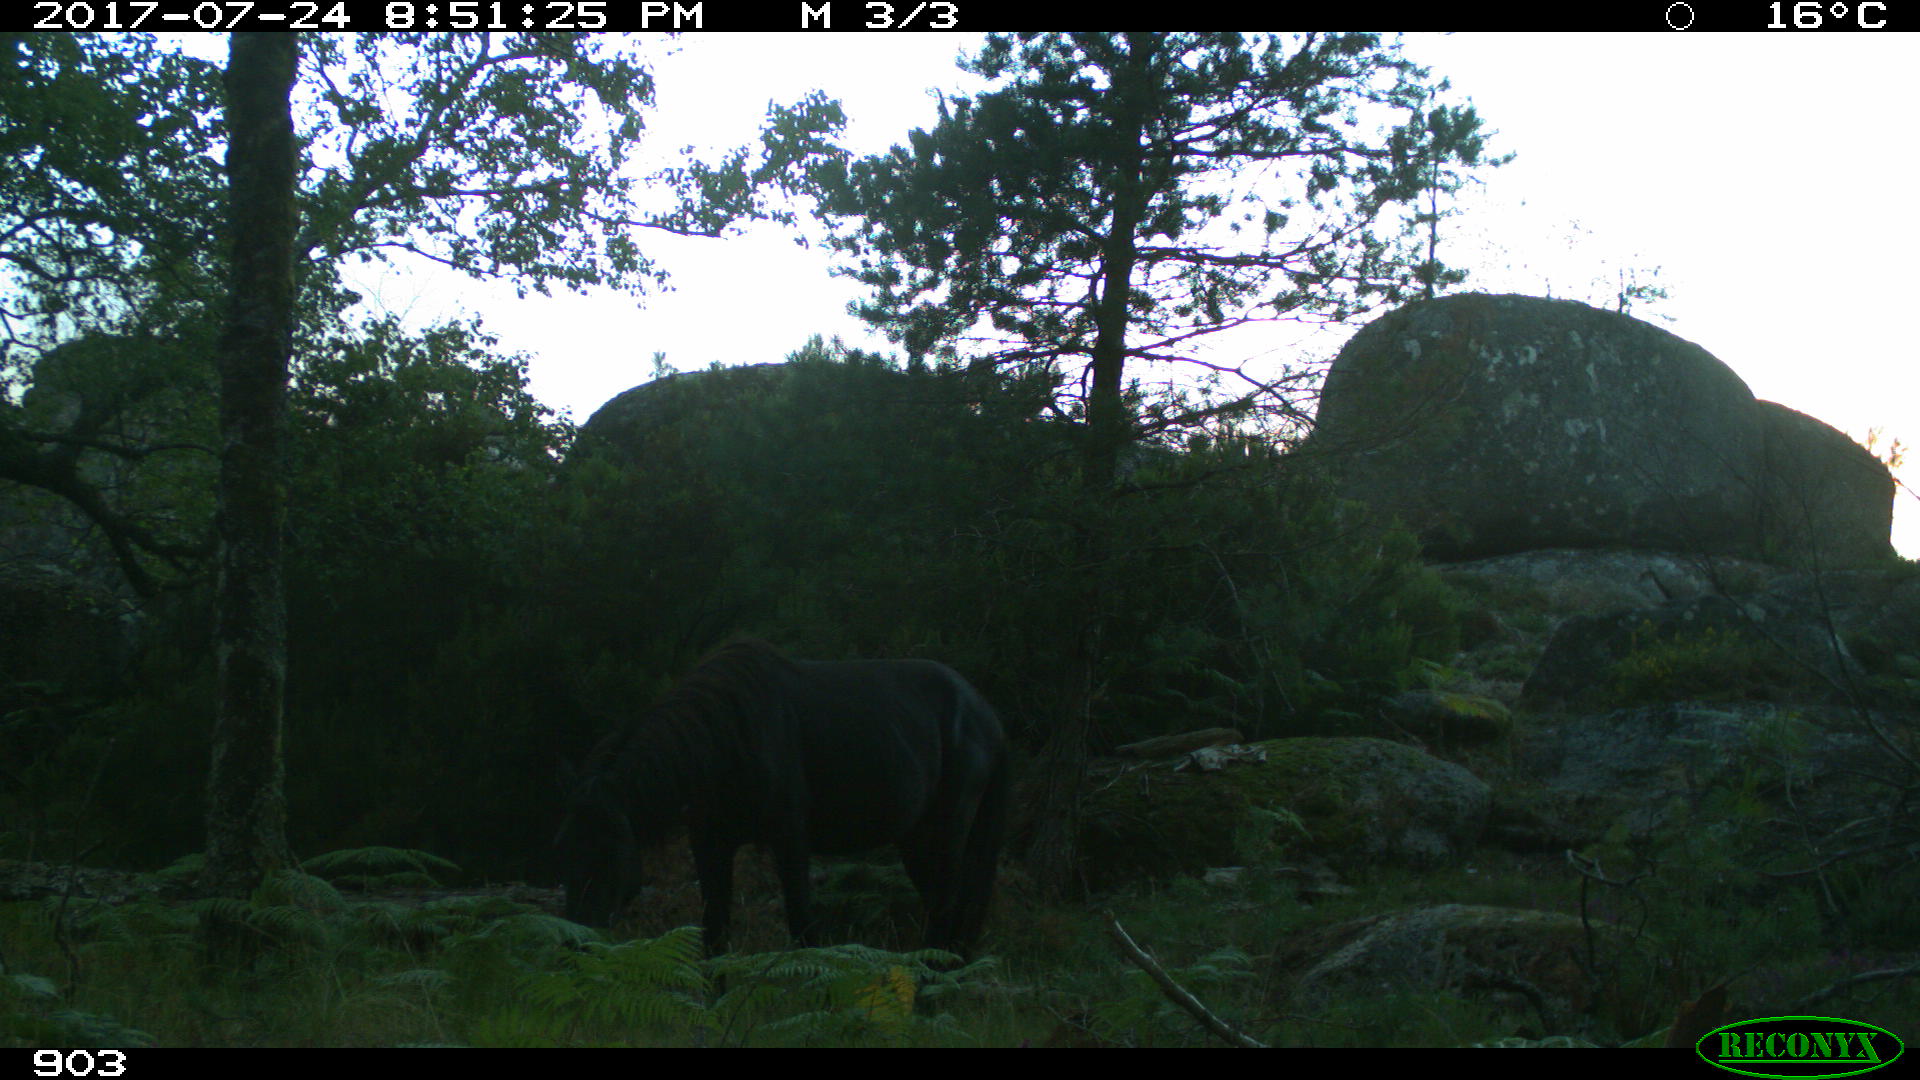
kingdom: Animalia
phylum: Chordata
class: Mammalia
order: Perissodactyla
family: Equidae
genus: Equus
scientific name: Equus caballus
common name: Horse
